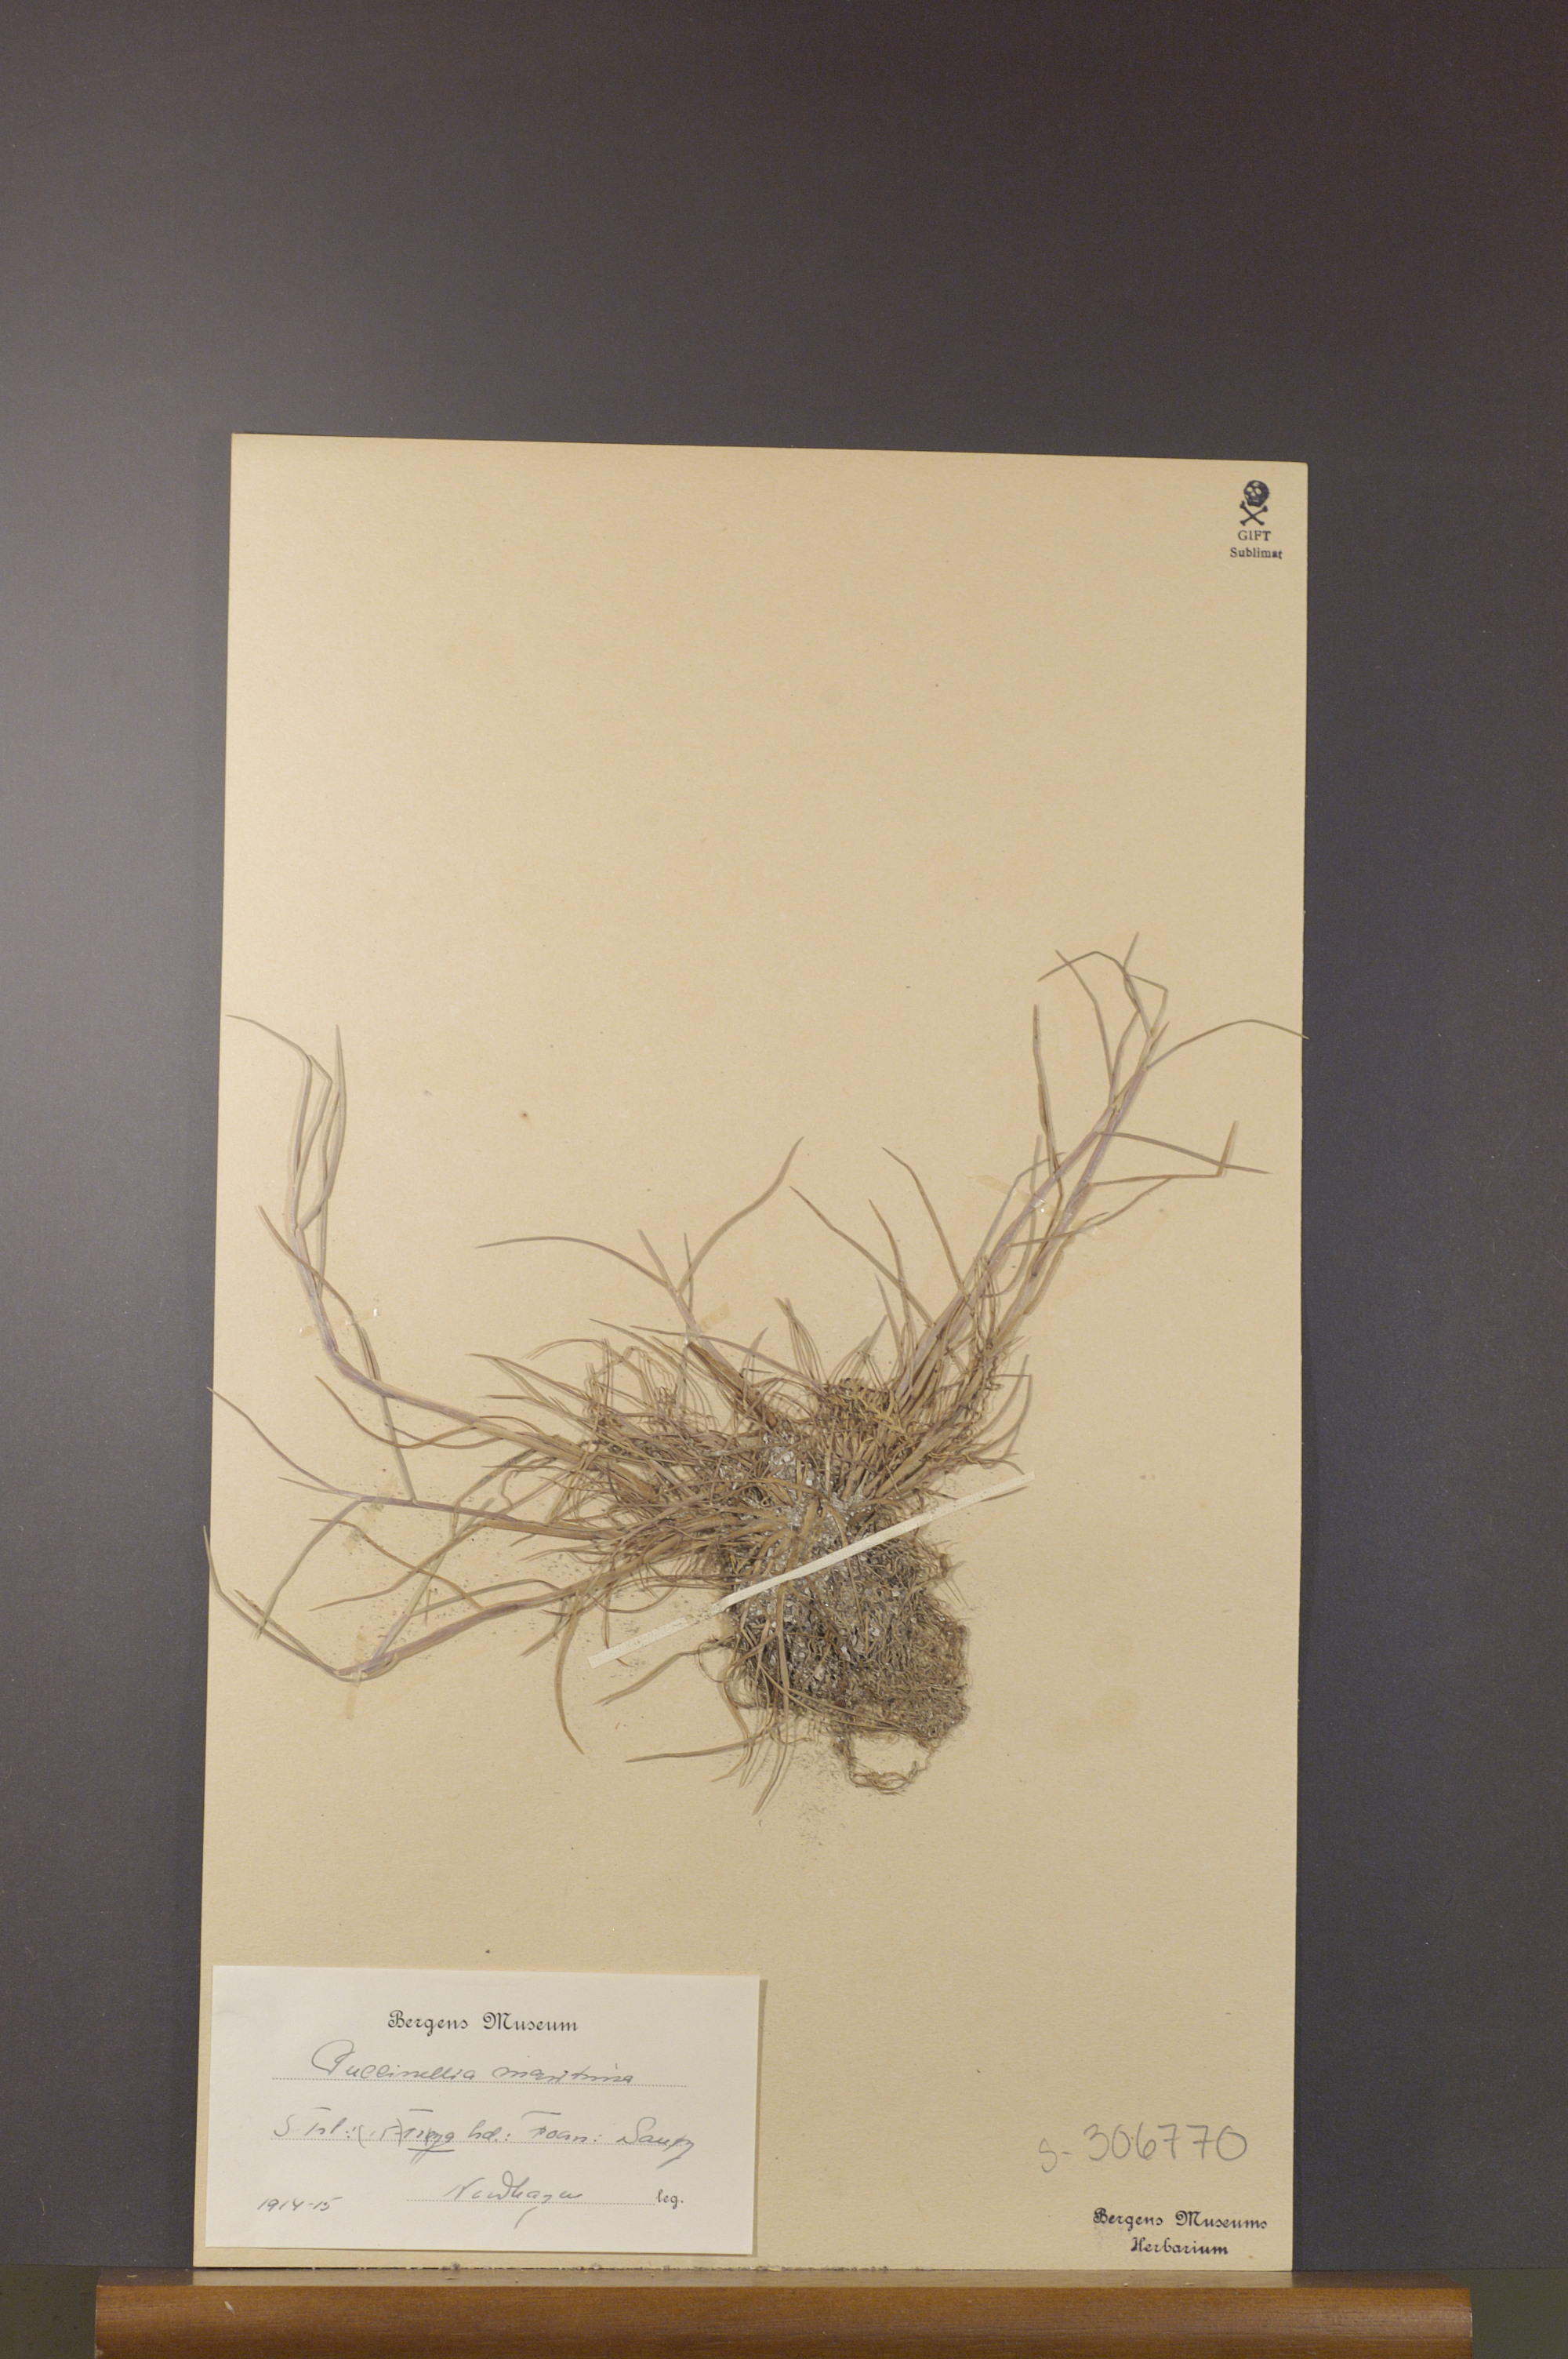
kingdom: Plantae
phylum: Tracheophyta
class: Liliopsida
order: Poales
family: Poaceae
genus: Puccinellia
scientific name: Puccinellia maritima
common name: Common saltmarsh grass
